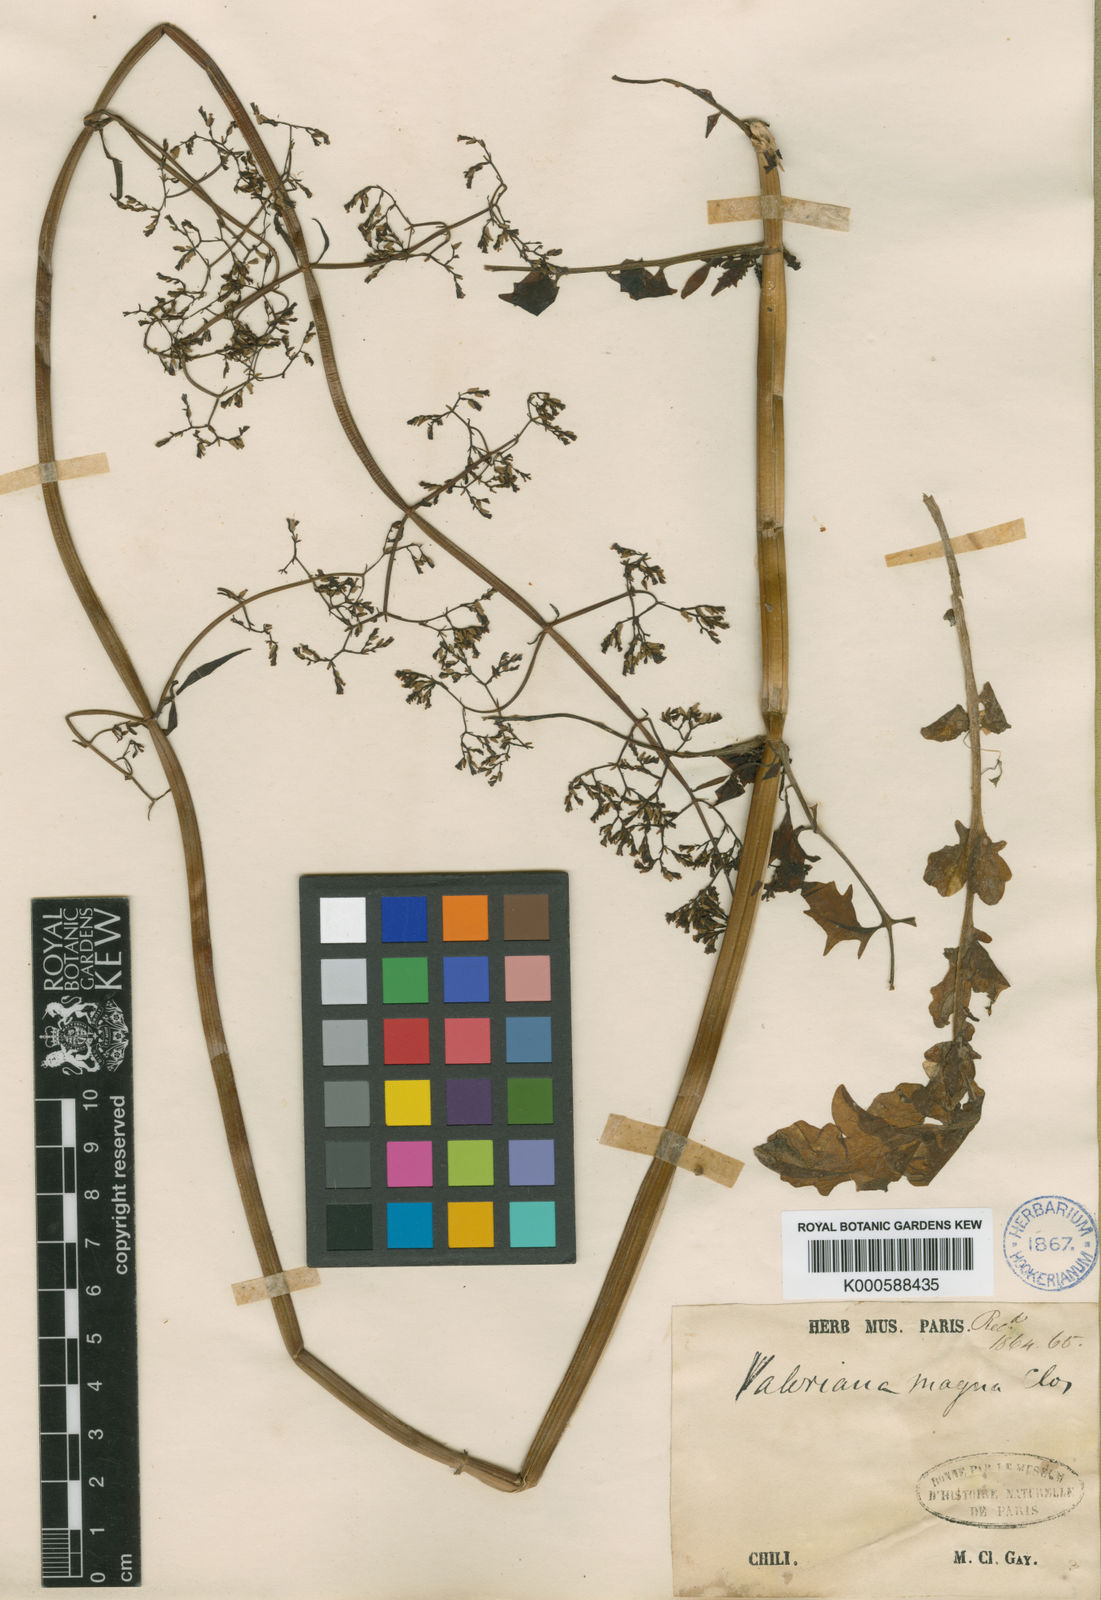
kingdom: Plantae
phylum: Tracheophyta
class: Magnoliopsida
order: Dipsacales
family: Caprifoliaceae
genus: Valeriana
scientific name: Valeriana magna
